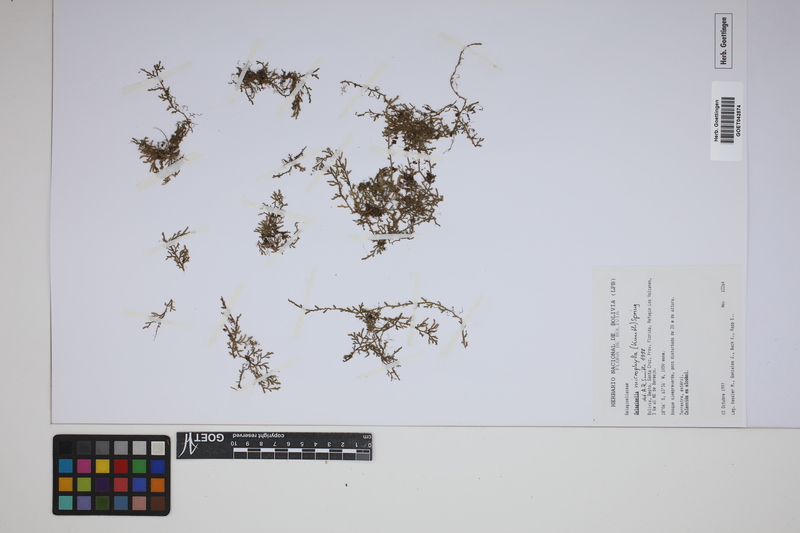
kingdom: Plantae
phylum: Tracheophyta
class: Lycopodiopsida
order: Selaginellales
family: Selaginellaceae
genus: Selaginella
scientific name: Selaginella microphylla
